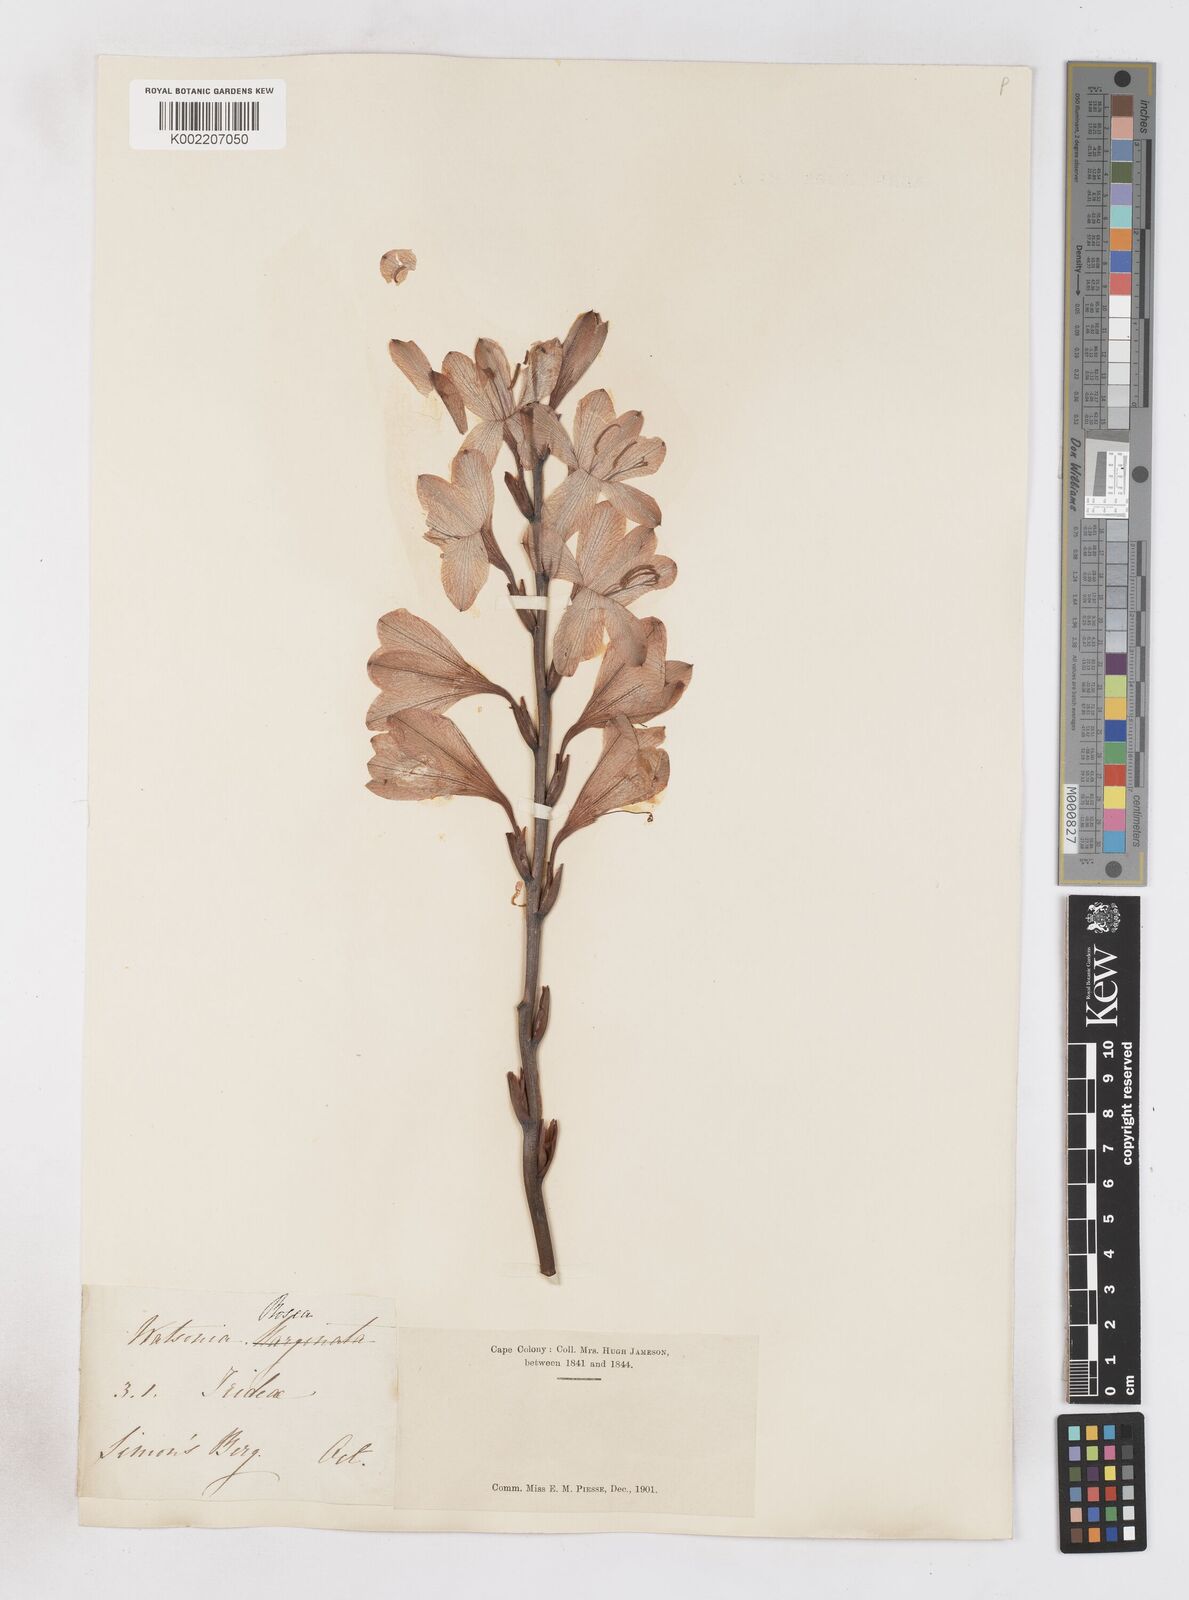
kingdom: Plantae
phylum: Tracheophyta
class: Liliopsida
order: Asparagales
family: Iridaceae
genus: Watsonia
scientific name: Watsonia borbonica
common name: Bugle-lily
